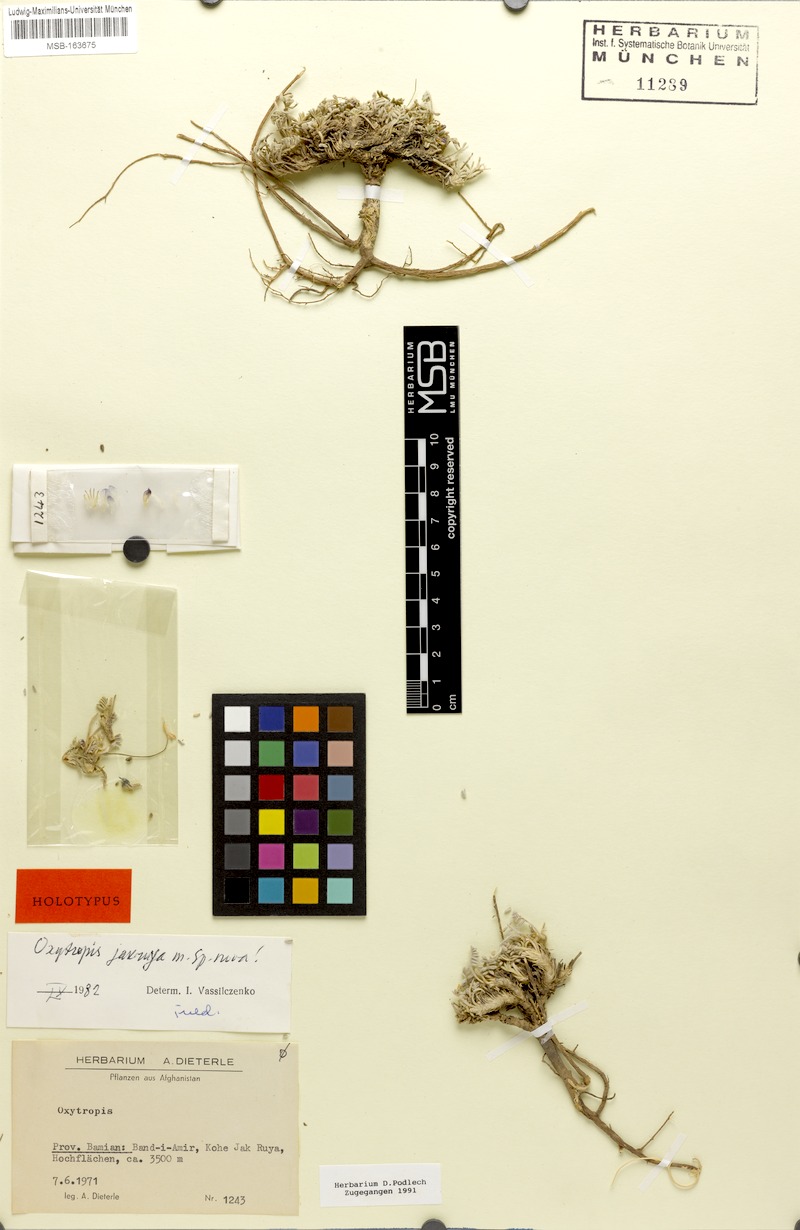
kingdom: Plantae
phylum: Tracheophyta
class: Magnoliopsida
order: Fabales
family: Fabaceae
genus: Oxytropis
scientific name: Oxytropis griffithii
